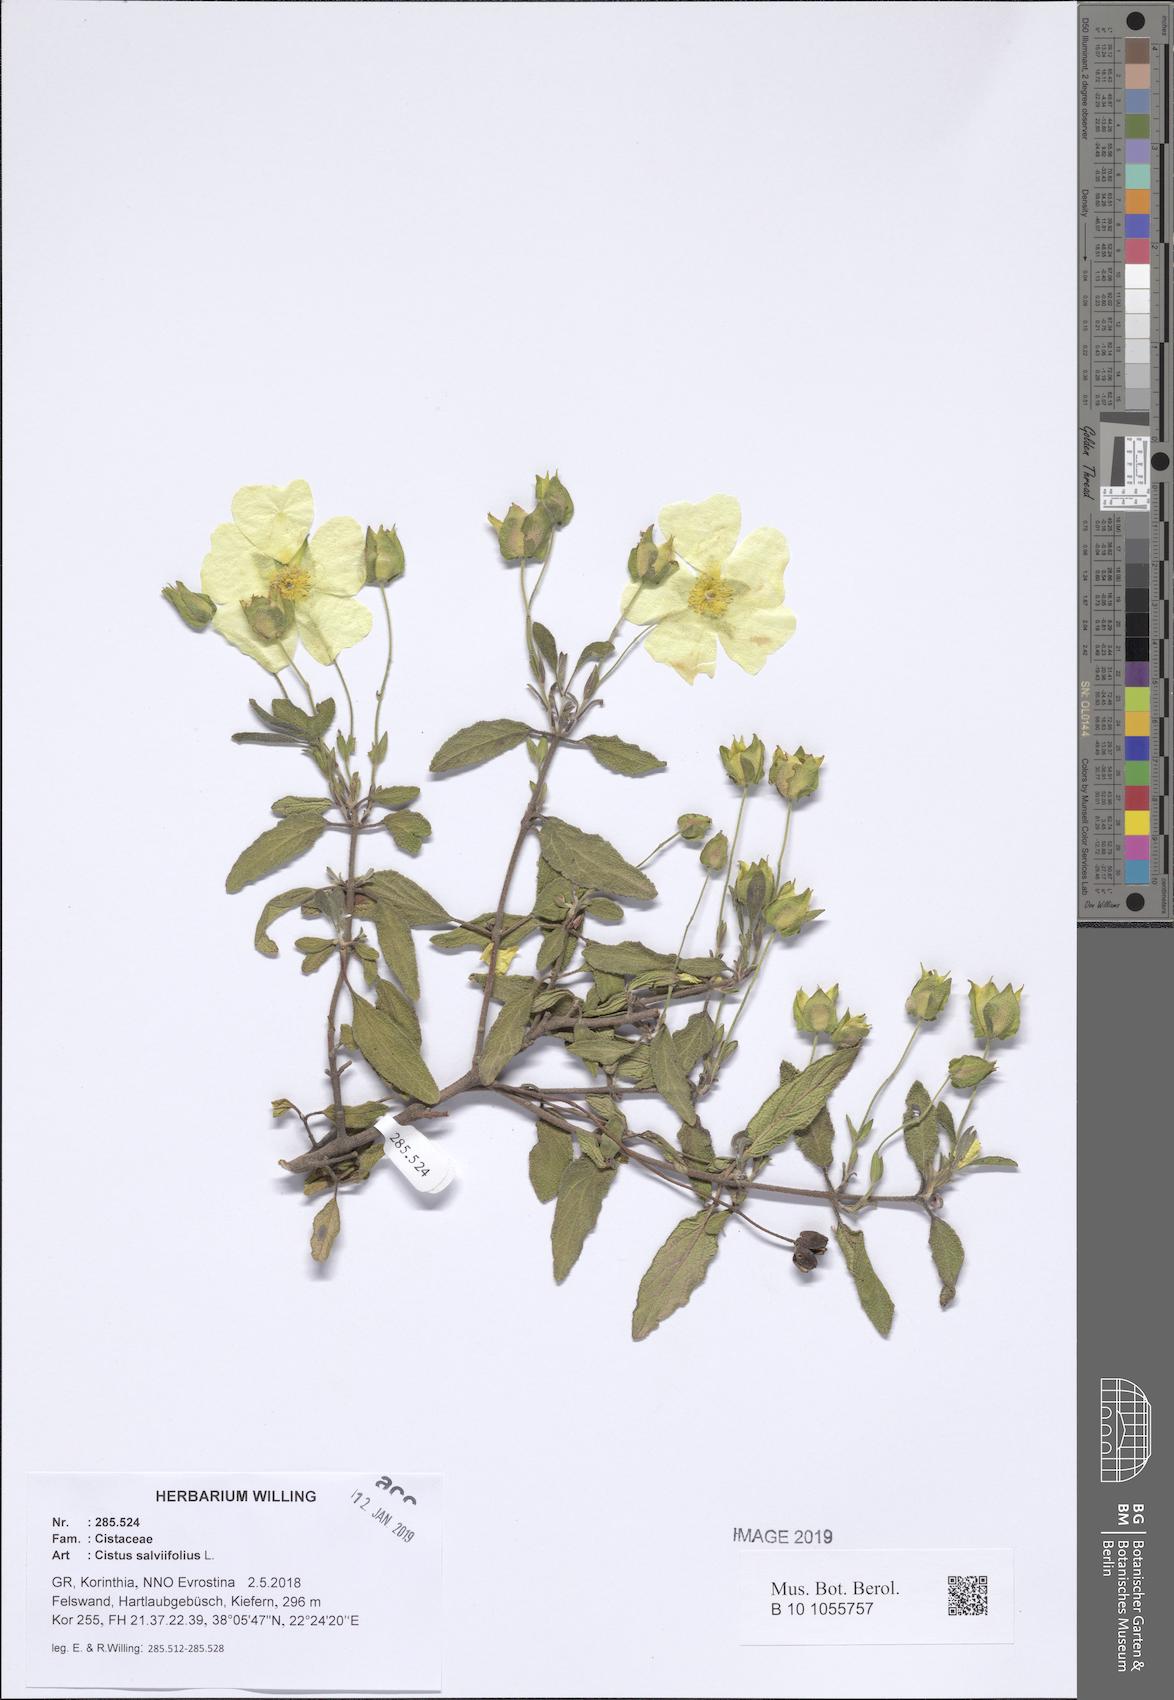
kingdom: Plantae
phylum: Tracheophyta
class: Magnoliopsida
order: Malvales
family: Cistaceae
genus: Cistus
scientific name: Cistus salviifolius
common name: Salvia cistus
